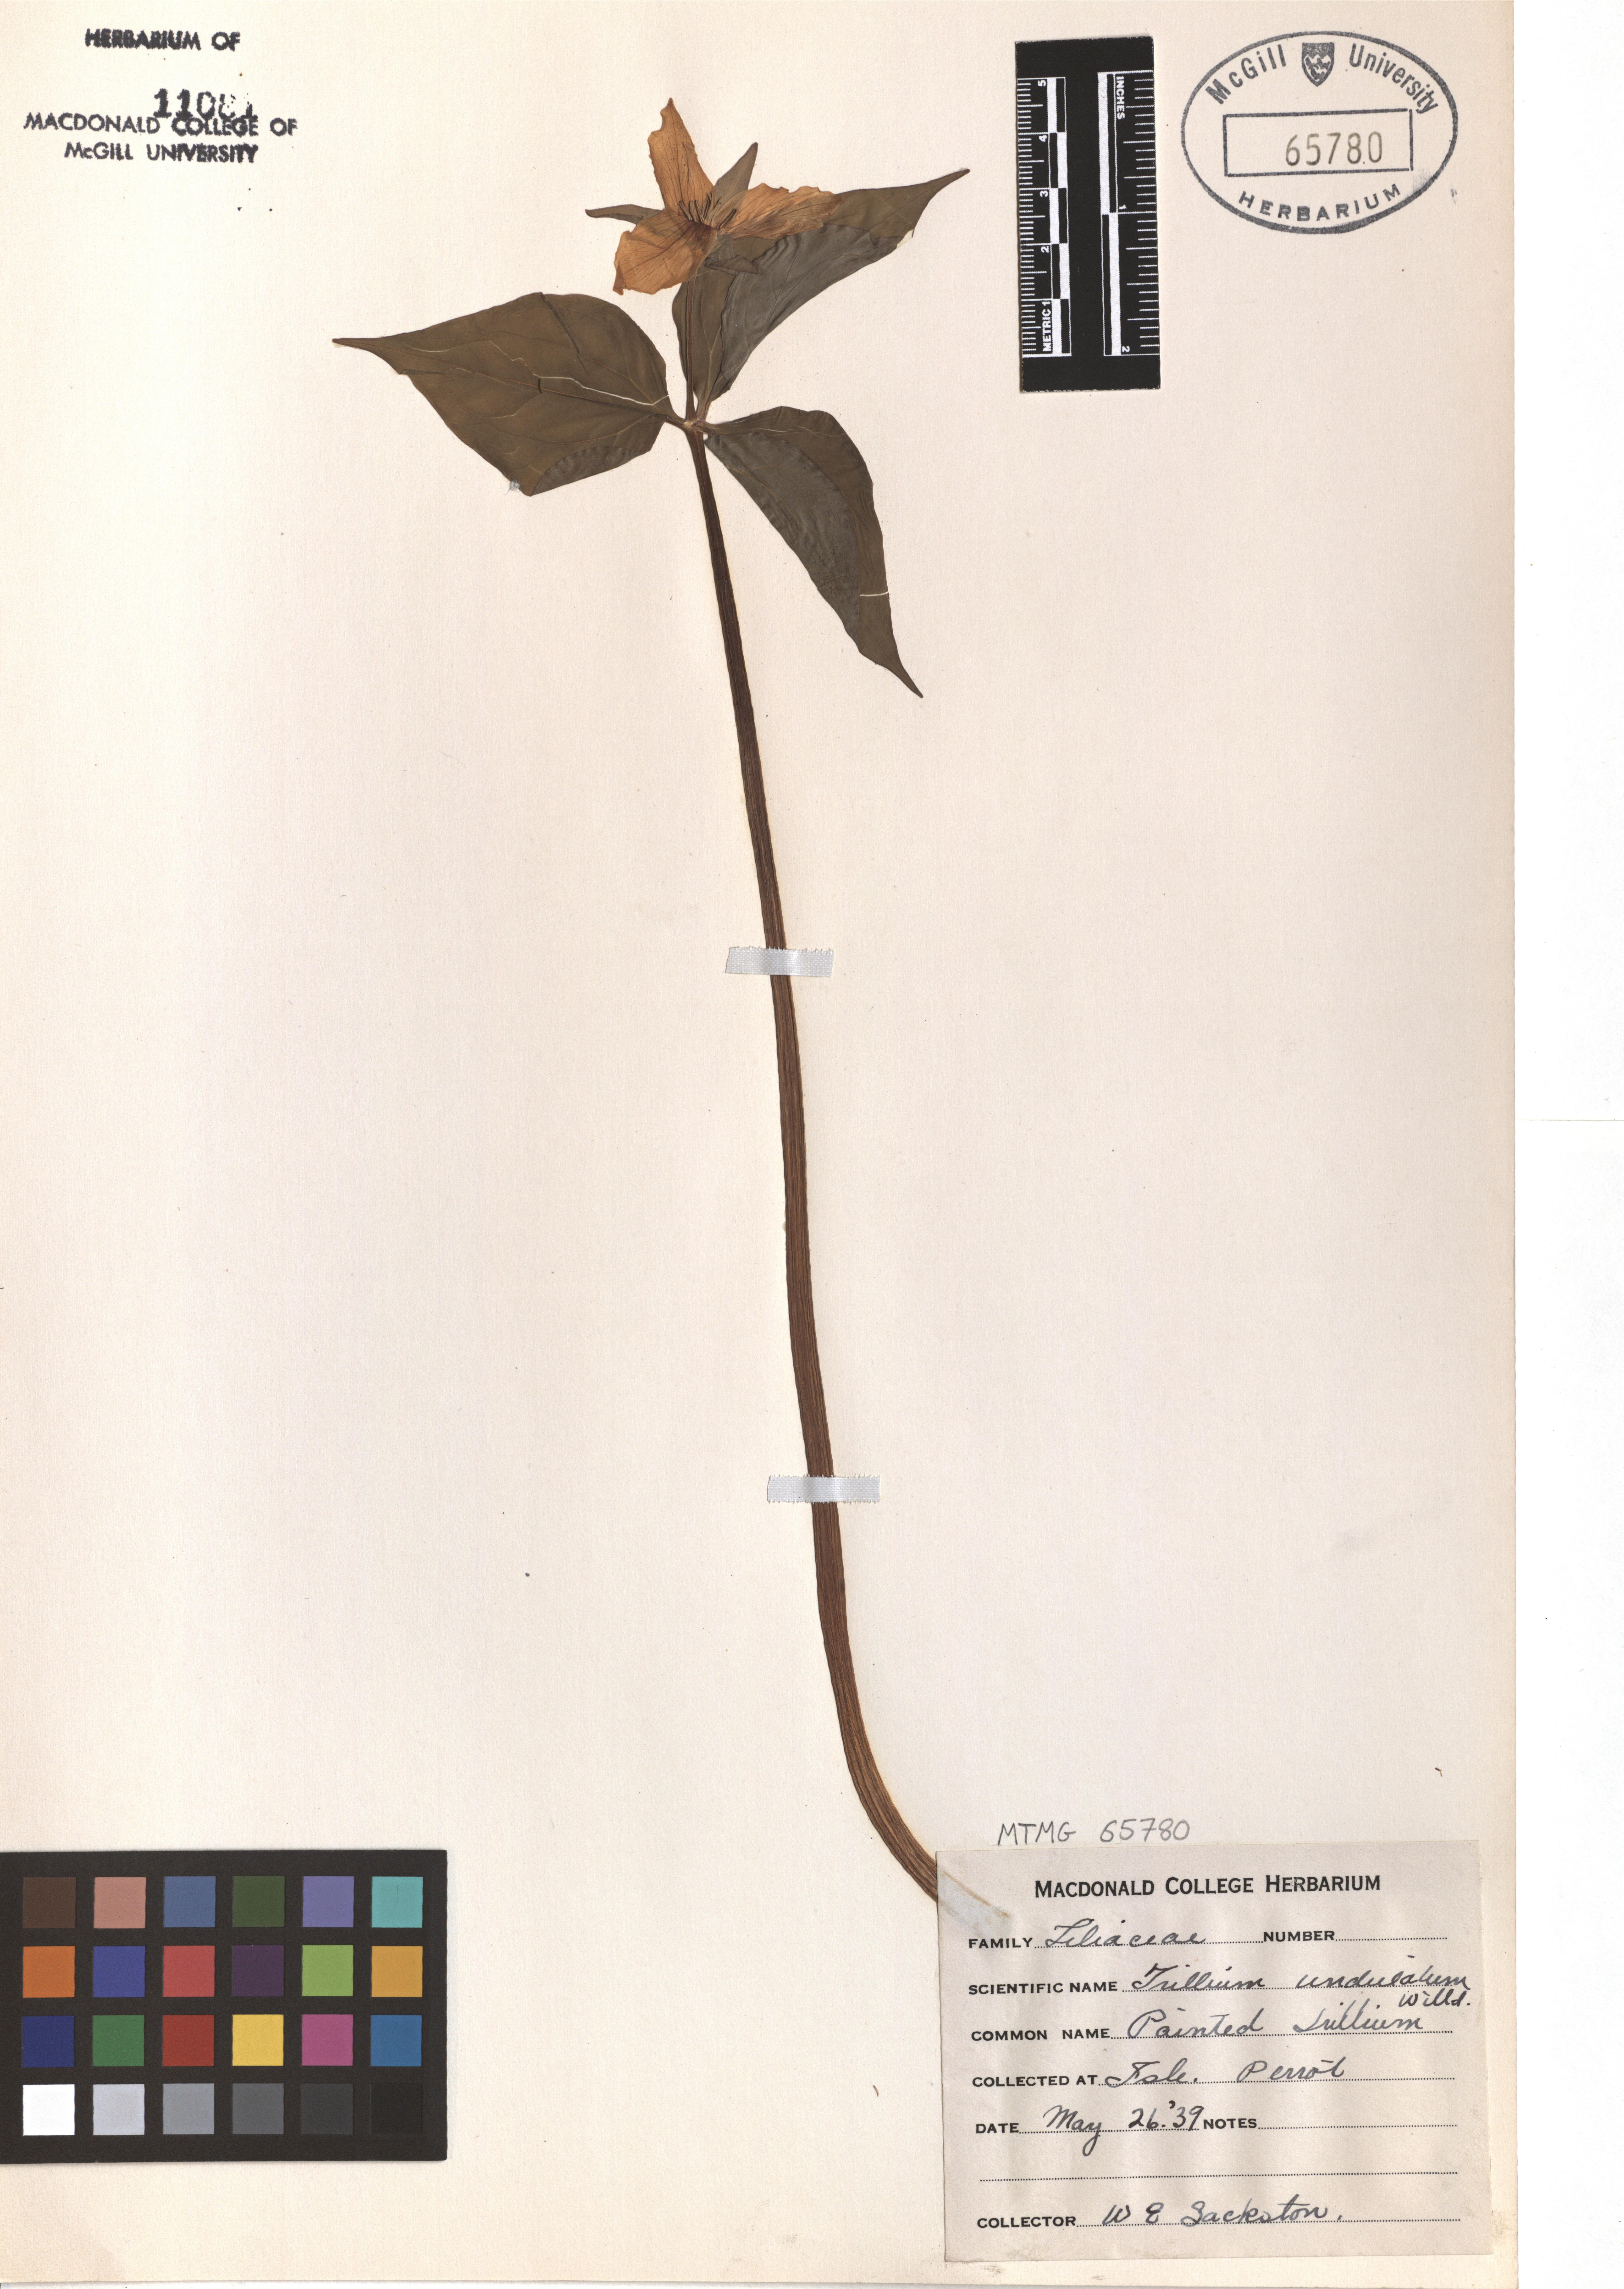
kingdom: Plantae
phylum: Tracheophyta
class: Liliopsida
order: Liliales
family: Melanthiaceae
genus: Trillium
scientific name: Trillium undulatum
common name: Paint trillium
